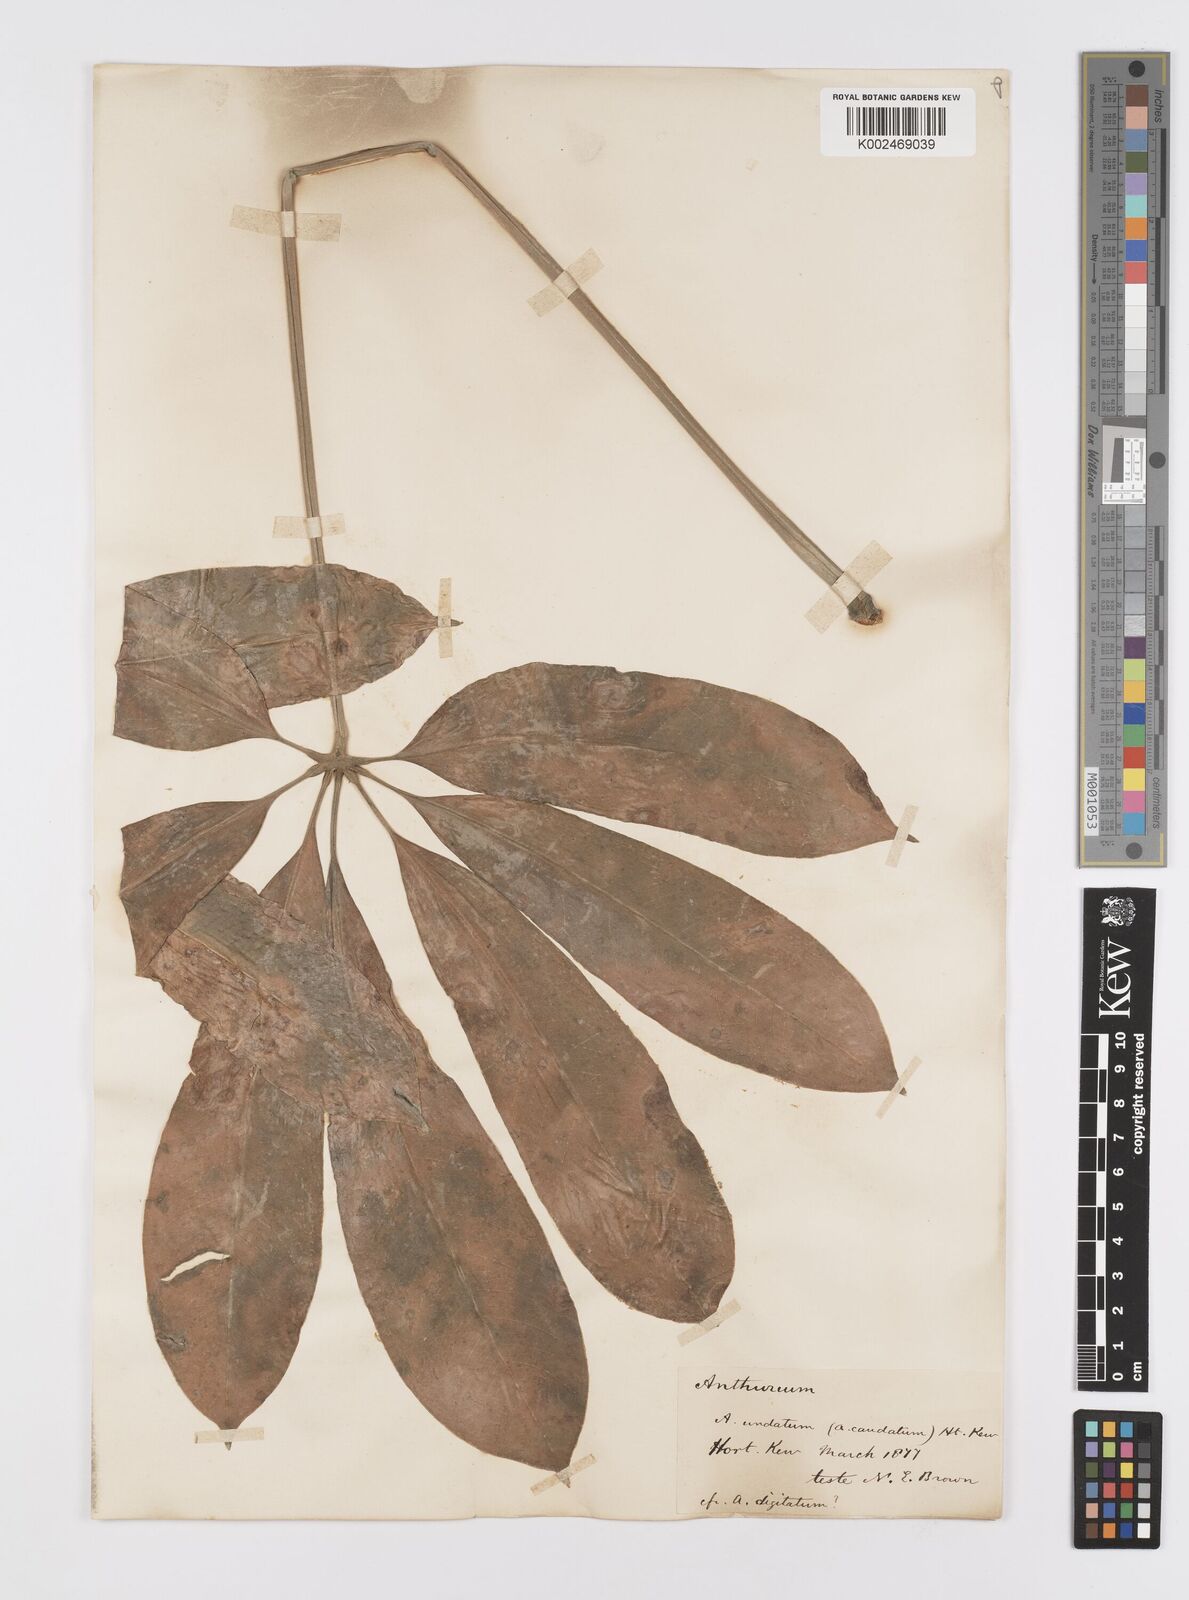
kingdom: Plantae
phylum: Tracheophyta
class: Liliopsida
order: Alismatales
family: Araceae
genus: Anthurium
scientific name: Anthurium pentaphyllum
